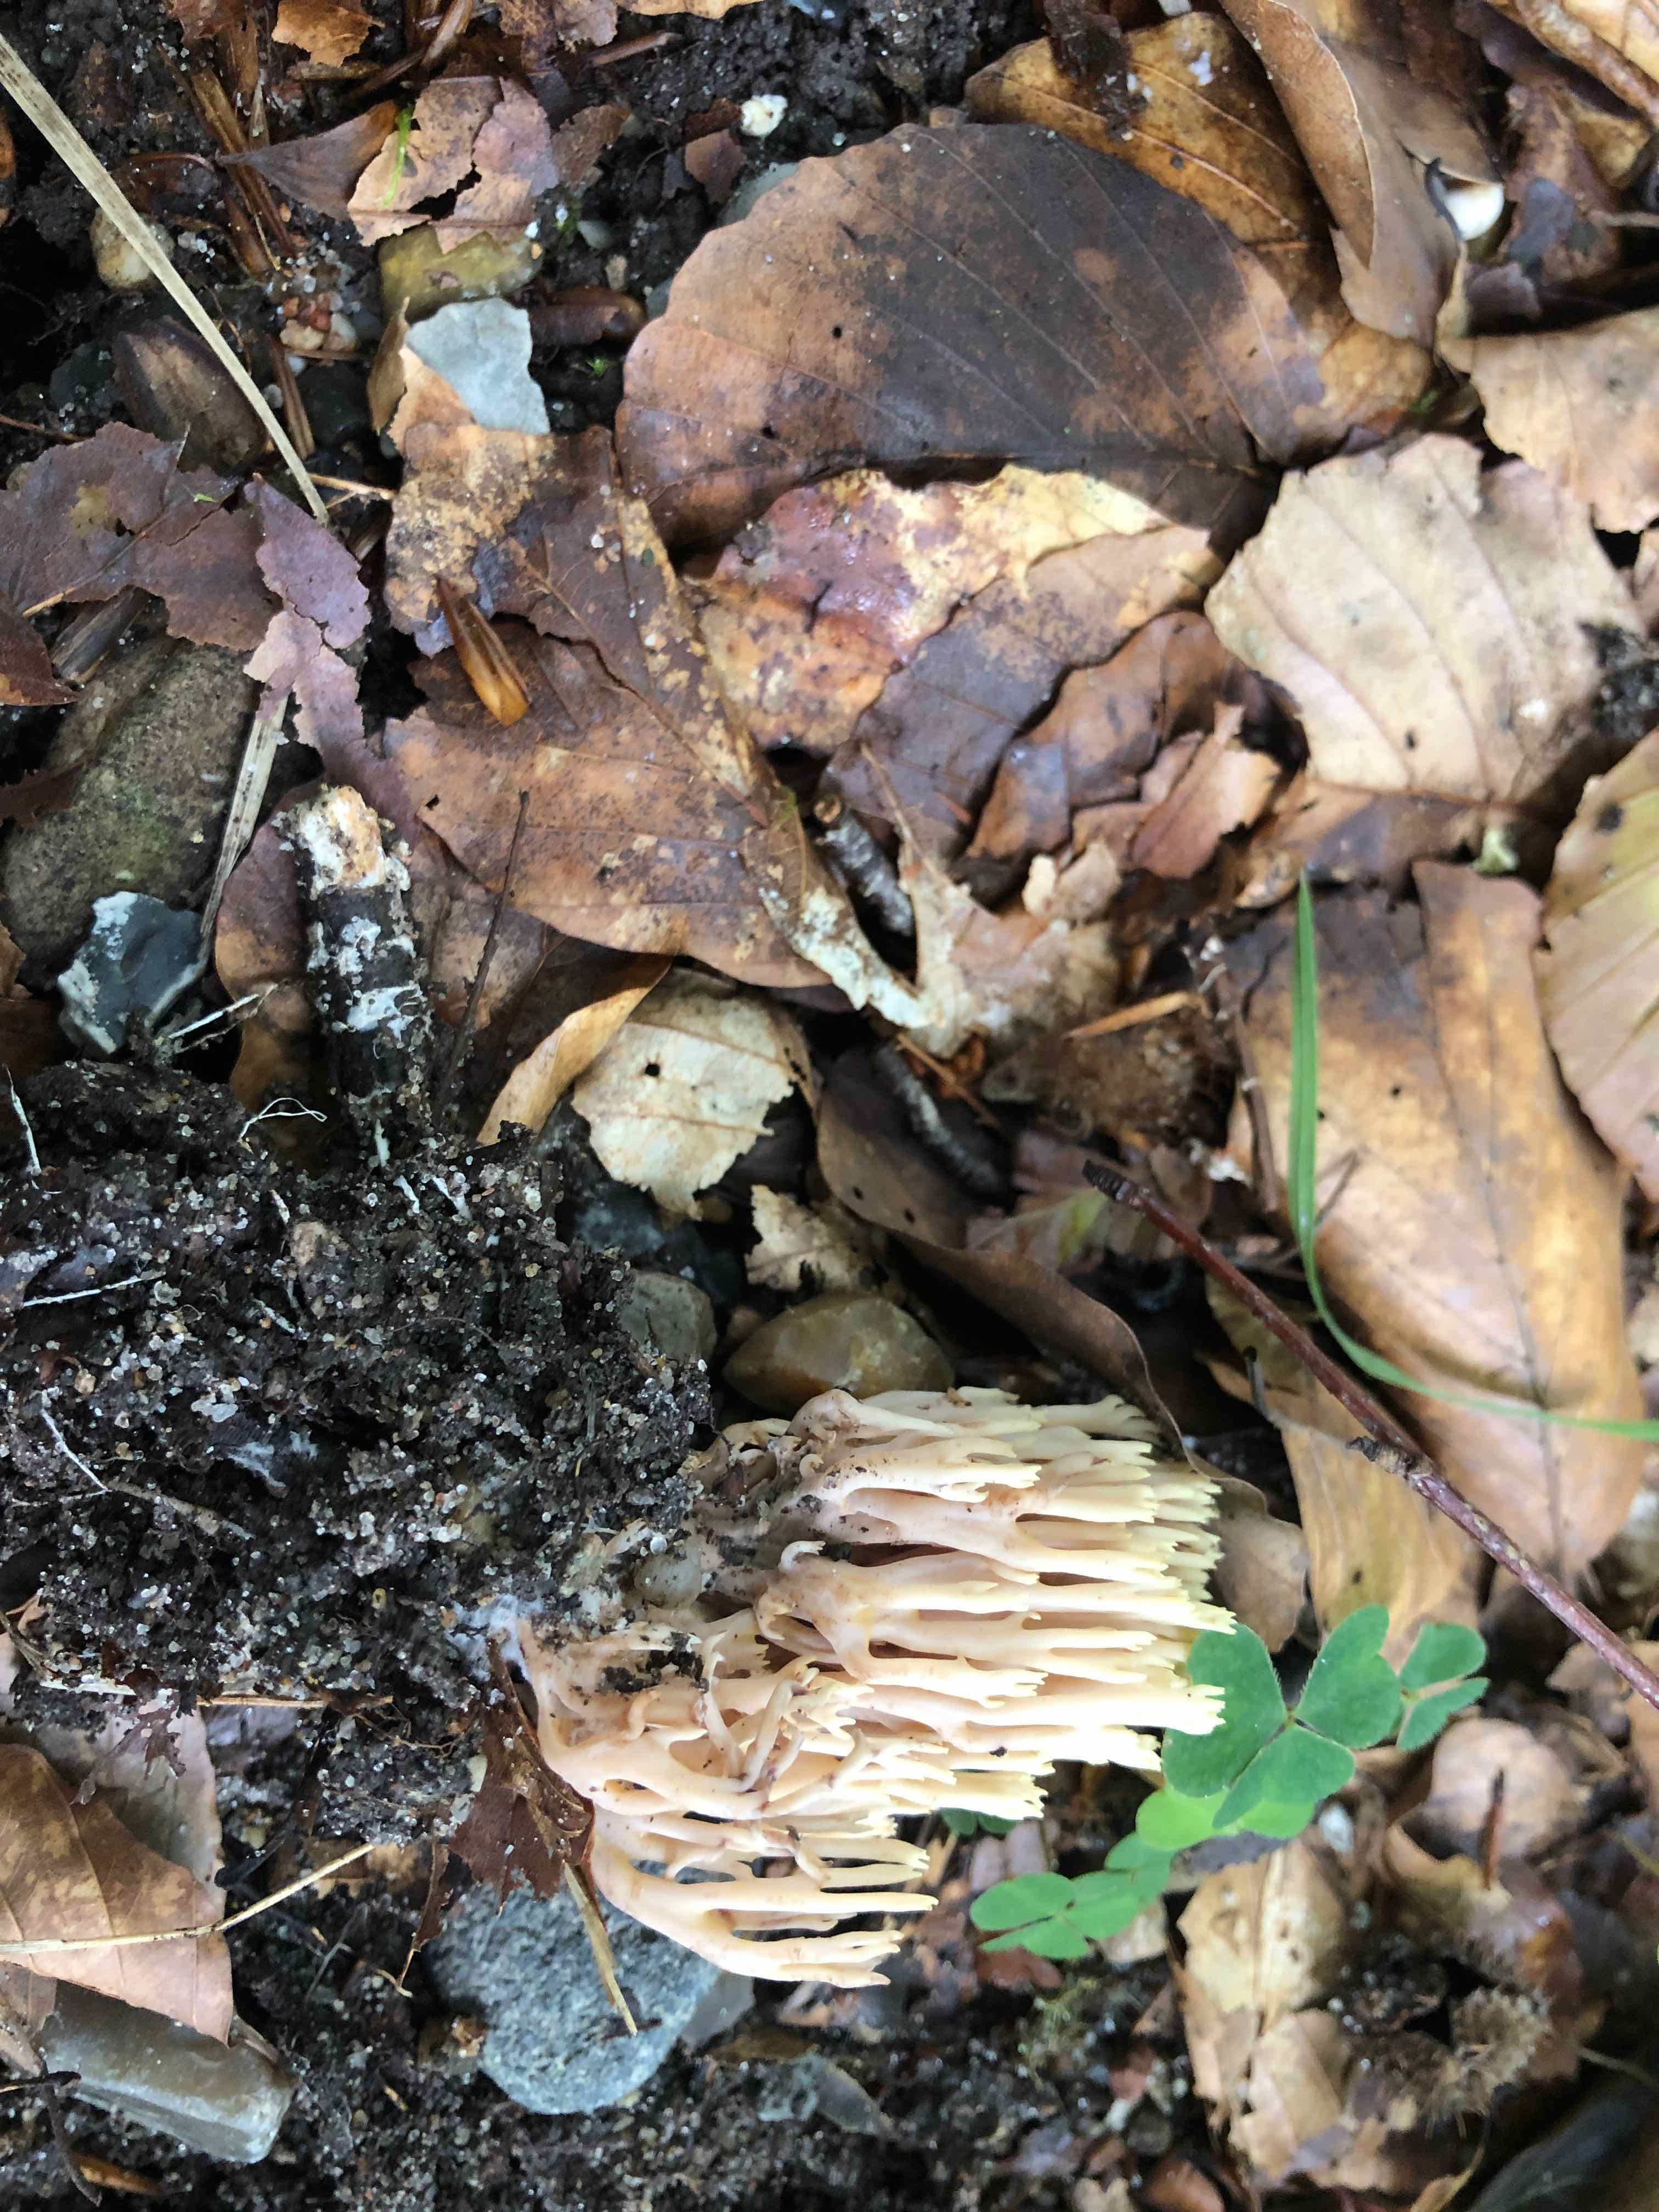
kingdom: Fungi
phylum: Basidiomycota
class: Agaricomycetes
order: Gomphales
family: Gomphaceae
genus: Ramaria
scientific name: Ramaria stricta
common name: rank koralsvamp
